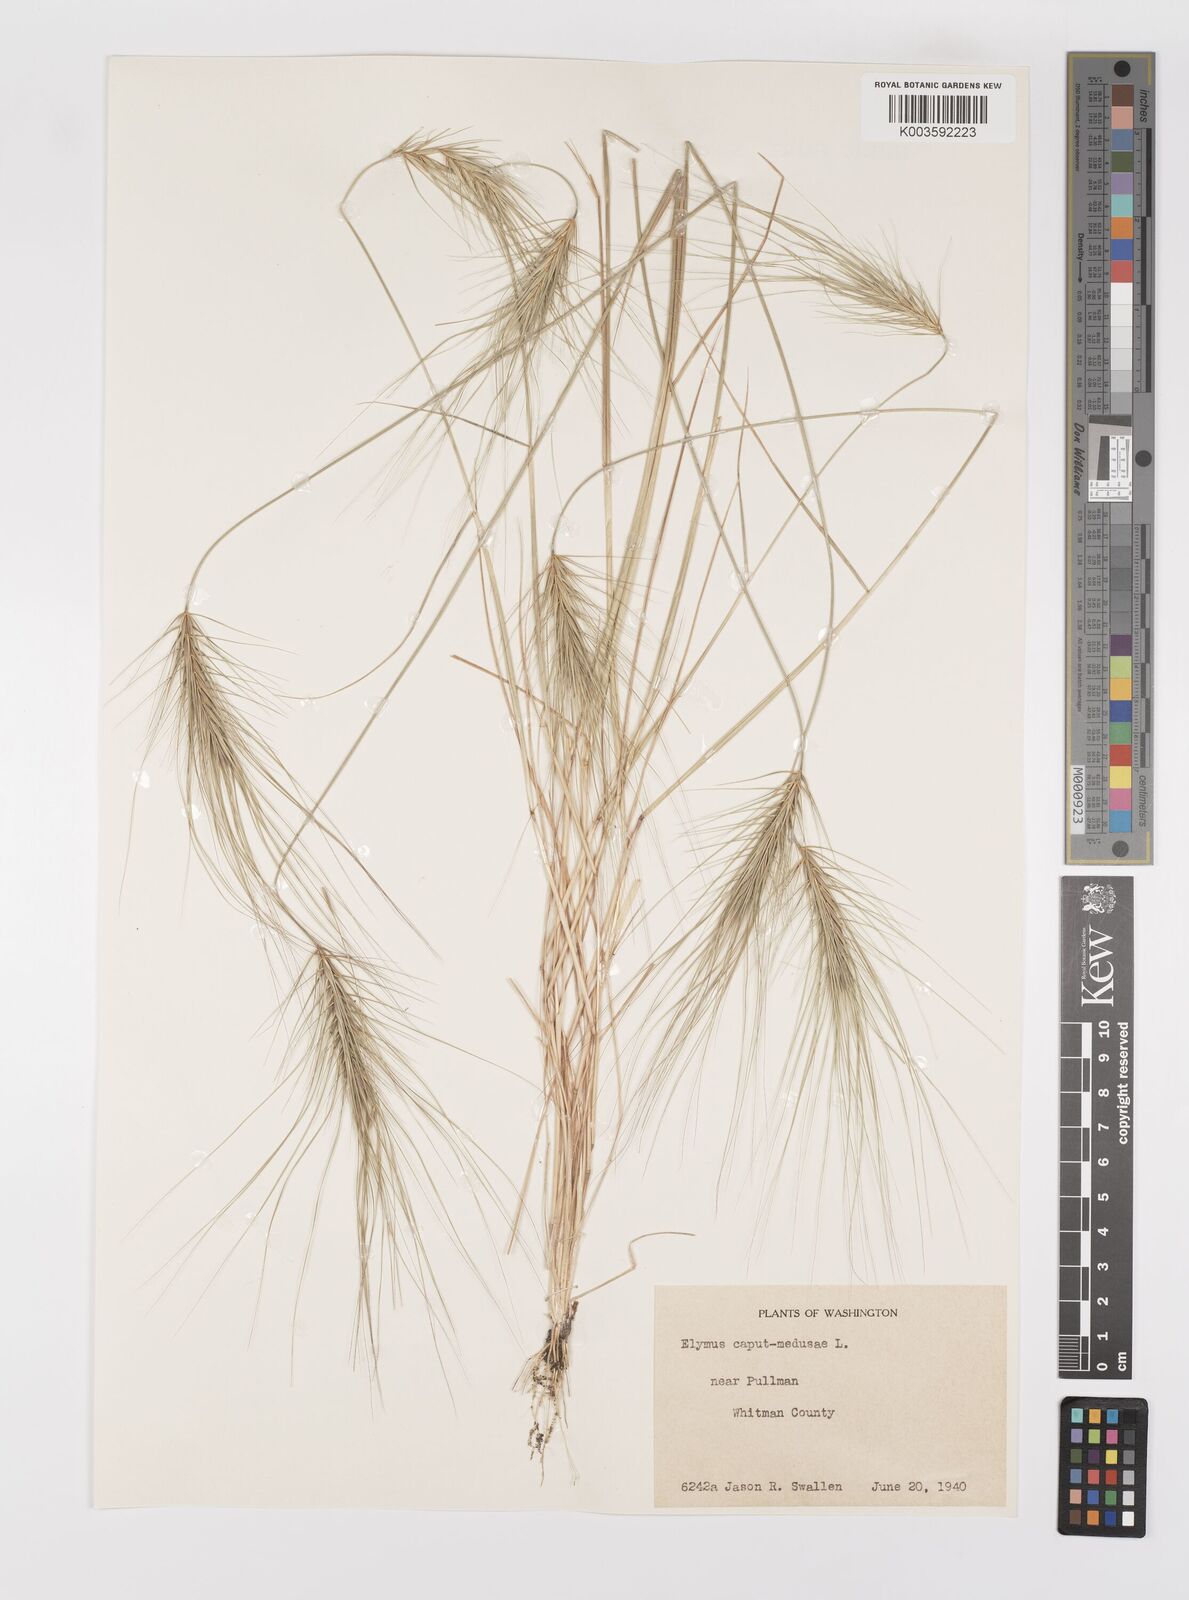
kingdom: Plantae
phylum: Tracheophyta
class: Liliopsida
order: Poales
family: Poaceae
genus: Taeniatherum
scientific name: Taeniatherum caput-medusae
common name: Medusahead
